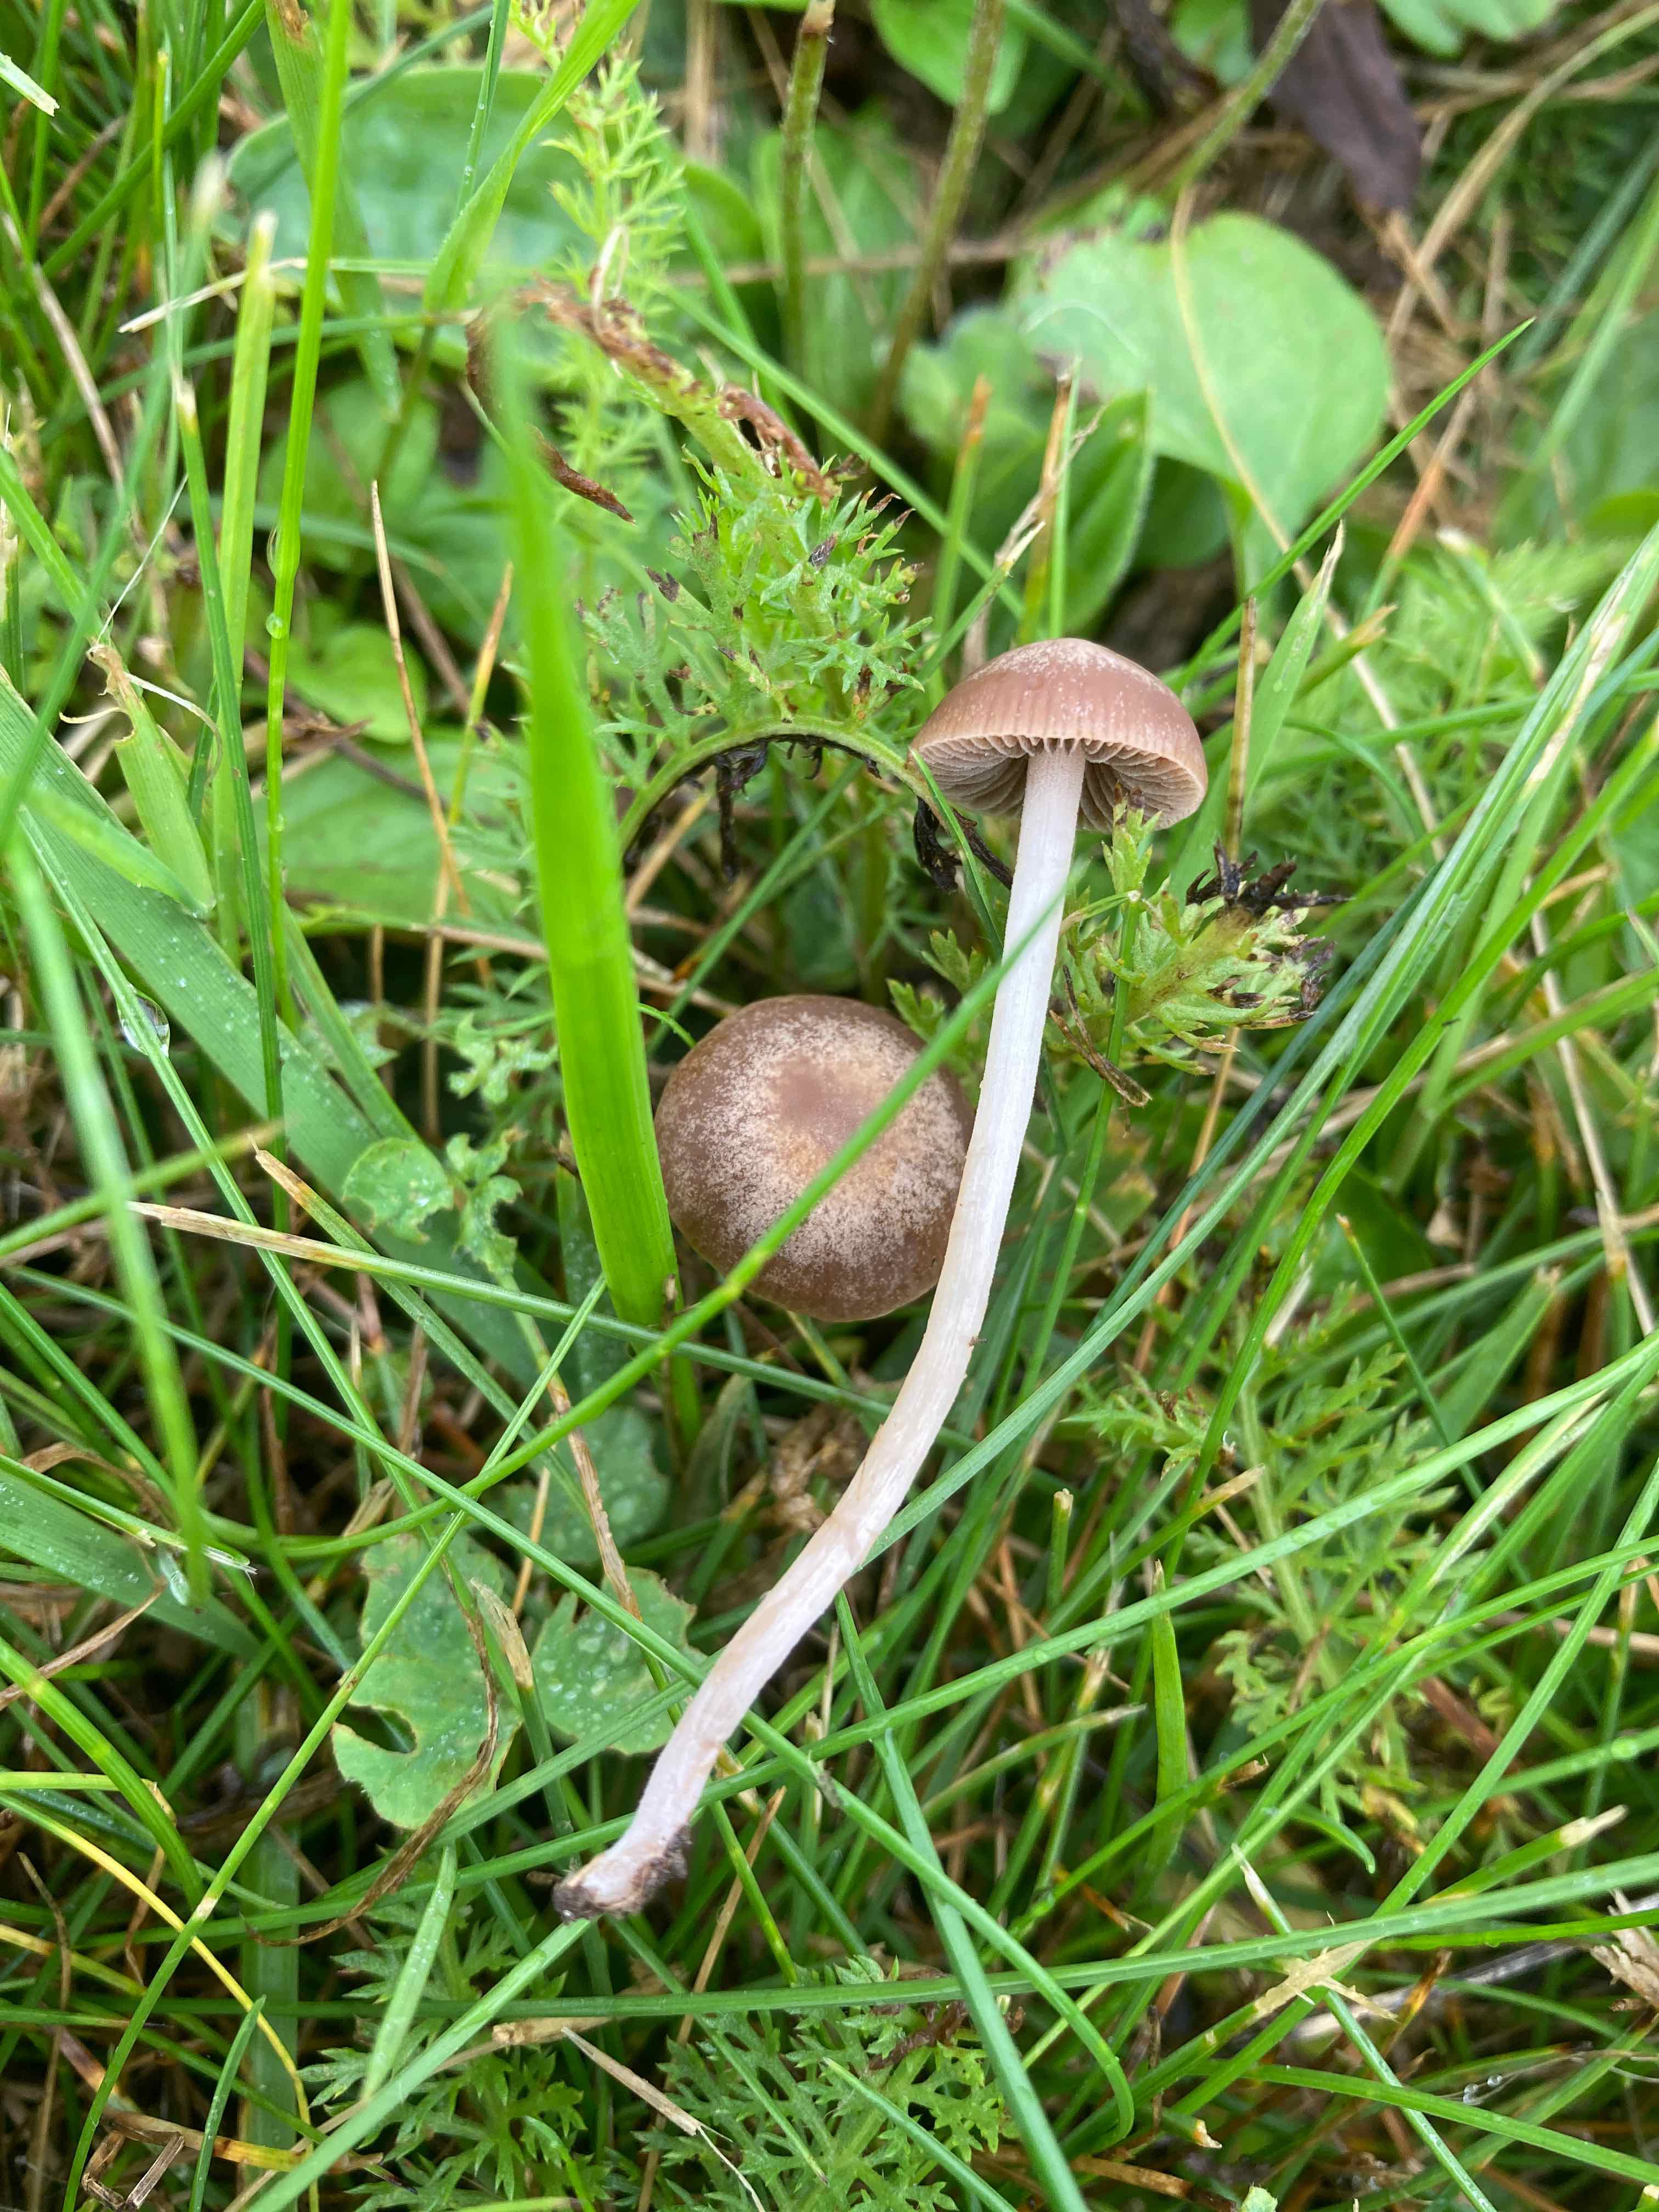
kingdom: Fungi
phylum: Basidiomycota
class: Agaricomycetes
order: Agaricales
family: Bolbitiaceae
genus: Panaeolina
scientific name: Panaeolina foenisecii
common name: høslætsvamp
